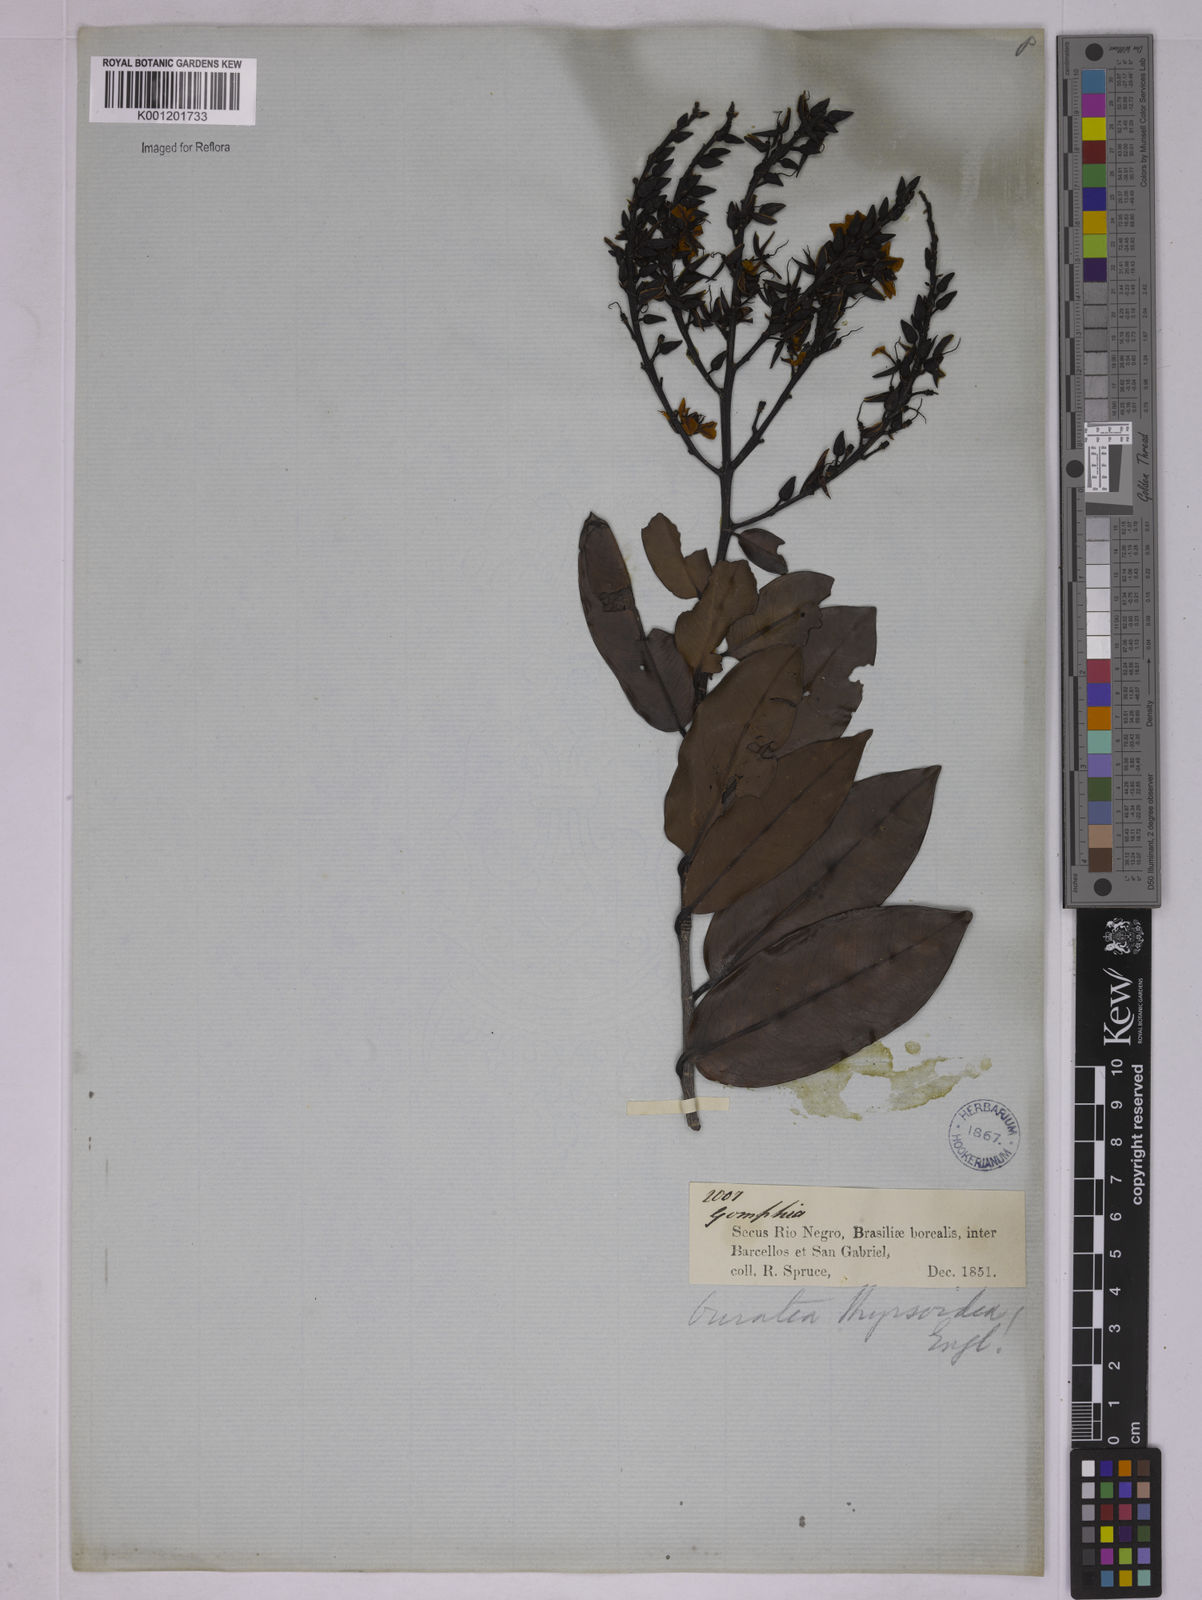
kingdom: Plantae
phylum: Tracheophyta
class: Magnoliopsida
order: Malpighiales
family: Ochnaceae
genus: Ouratea
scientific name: Ouratea thyrsoidea
